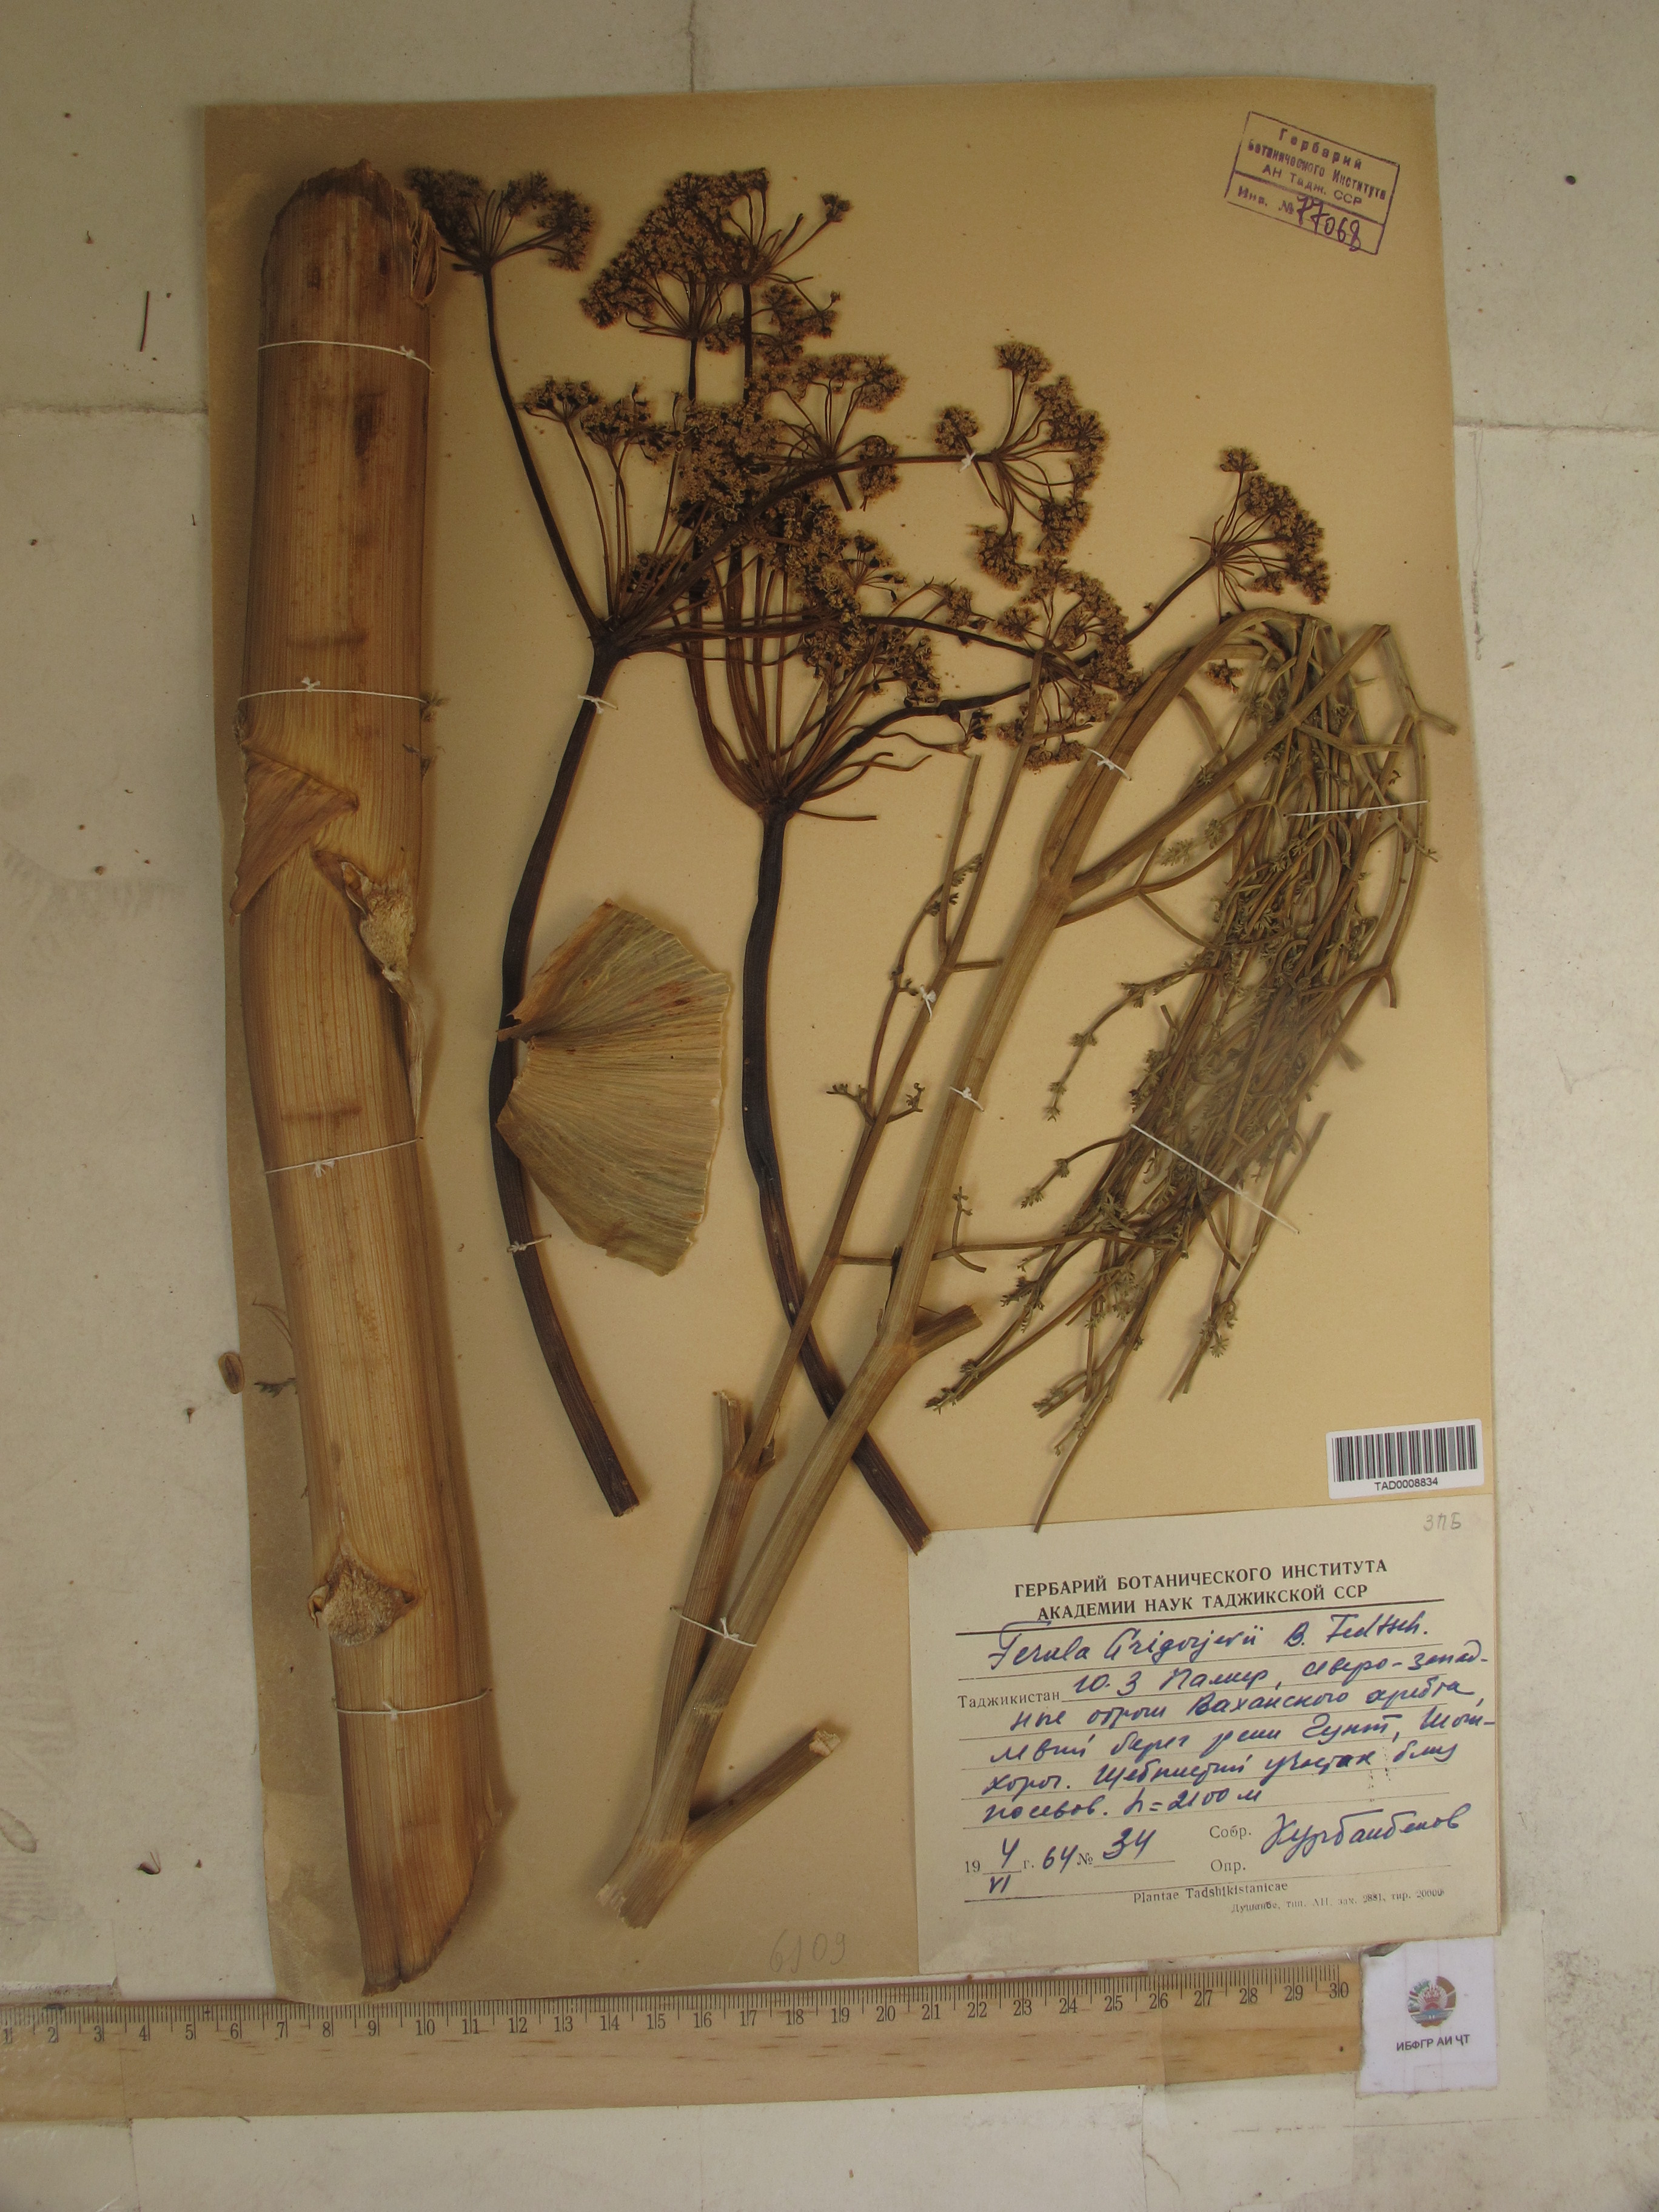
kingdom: Plantae
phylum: Tracheophyta
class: Magnoliopsida
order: Apiales
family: Apiaceae
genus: Ferula
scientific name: Ferula grigoriewii
